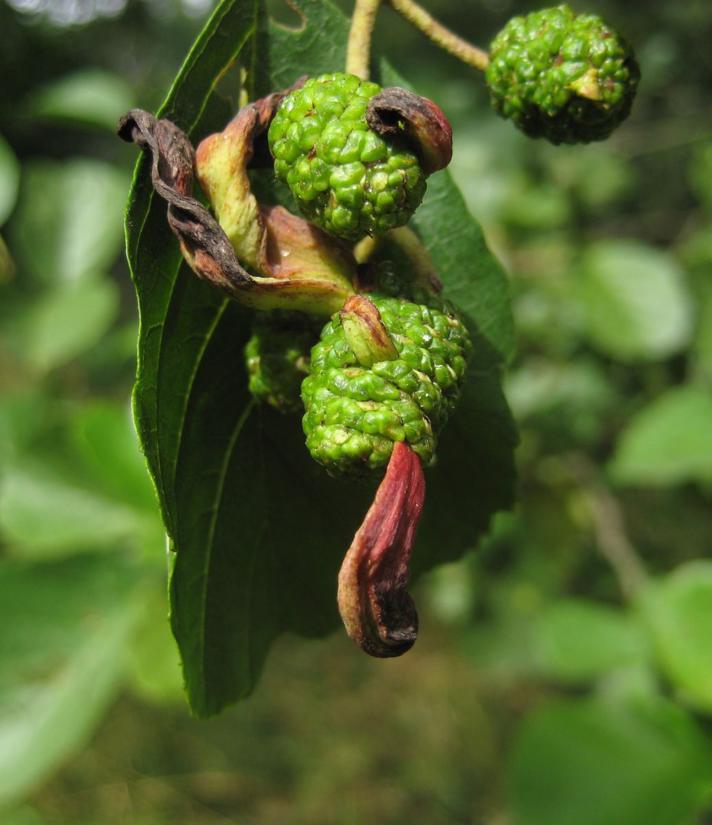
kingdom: Fungi
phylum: Ascomycota
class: Taphrinomycetes
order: Taphrinales
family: Taphrinaceae
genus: Taphrina
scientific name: Taphrina alni
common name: Alder tongue
